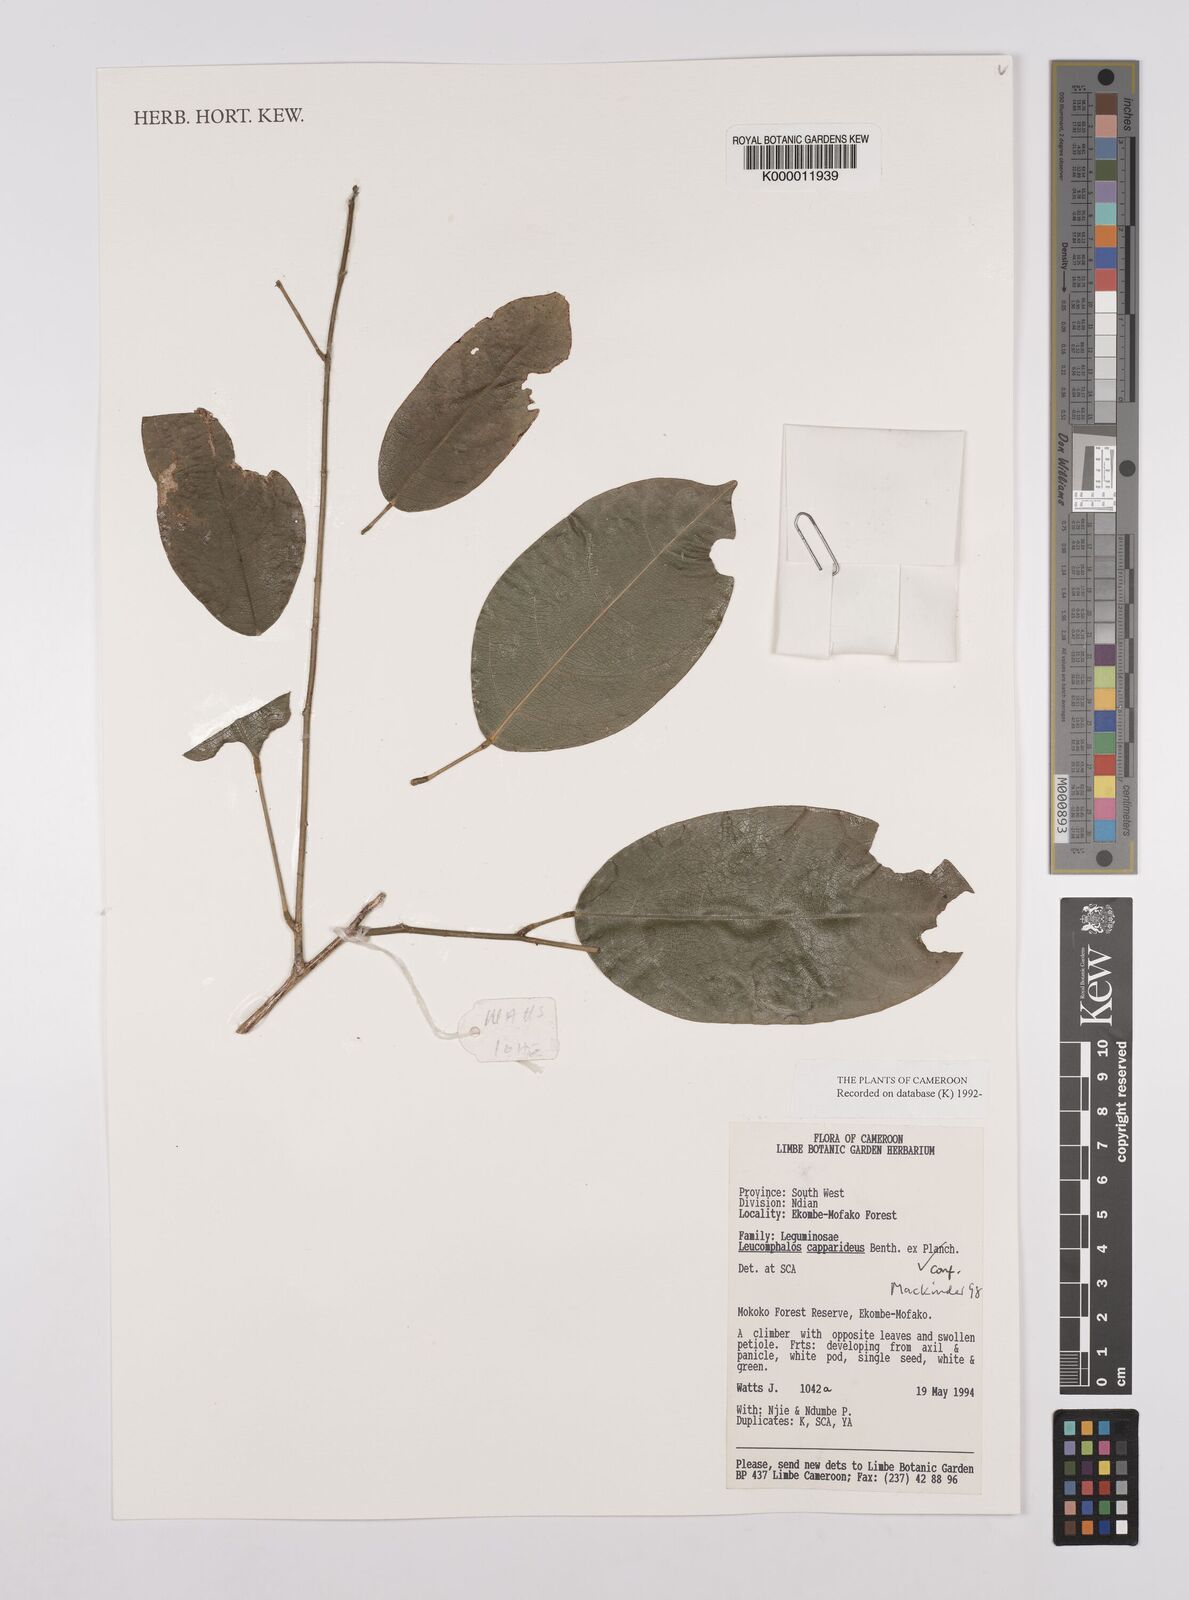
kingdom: Plantae
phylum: Tracheophyta
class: Magnoliopsida
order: Fabales
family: Fabaceae
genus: Leucomphalos
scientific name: Leucomphalos
